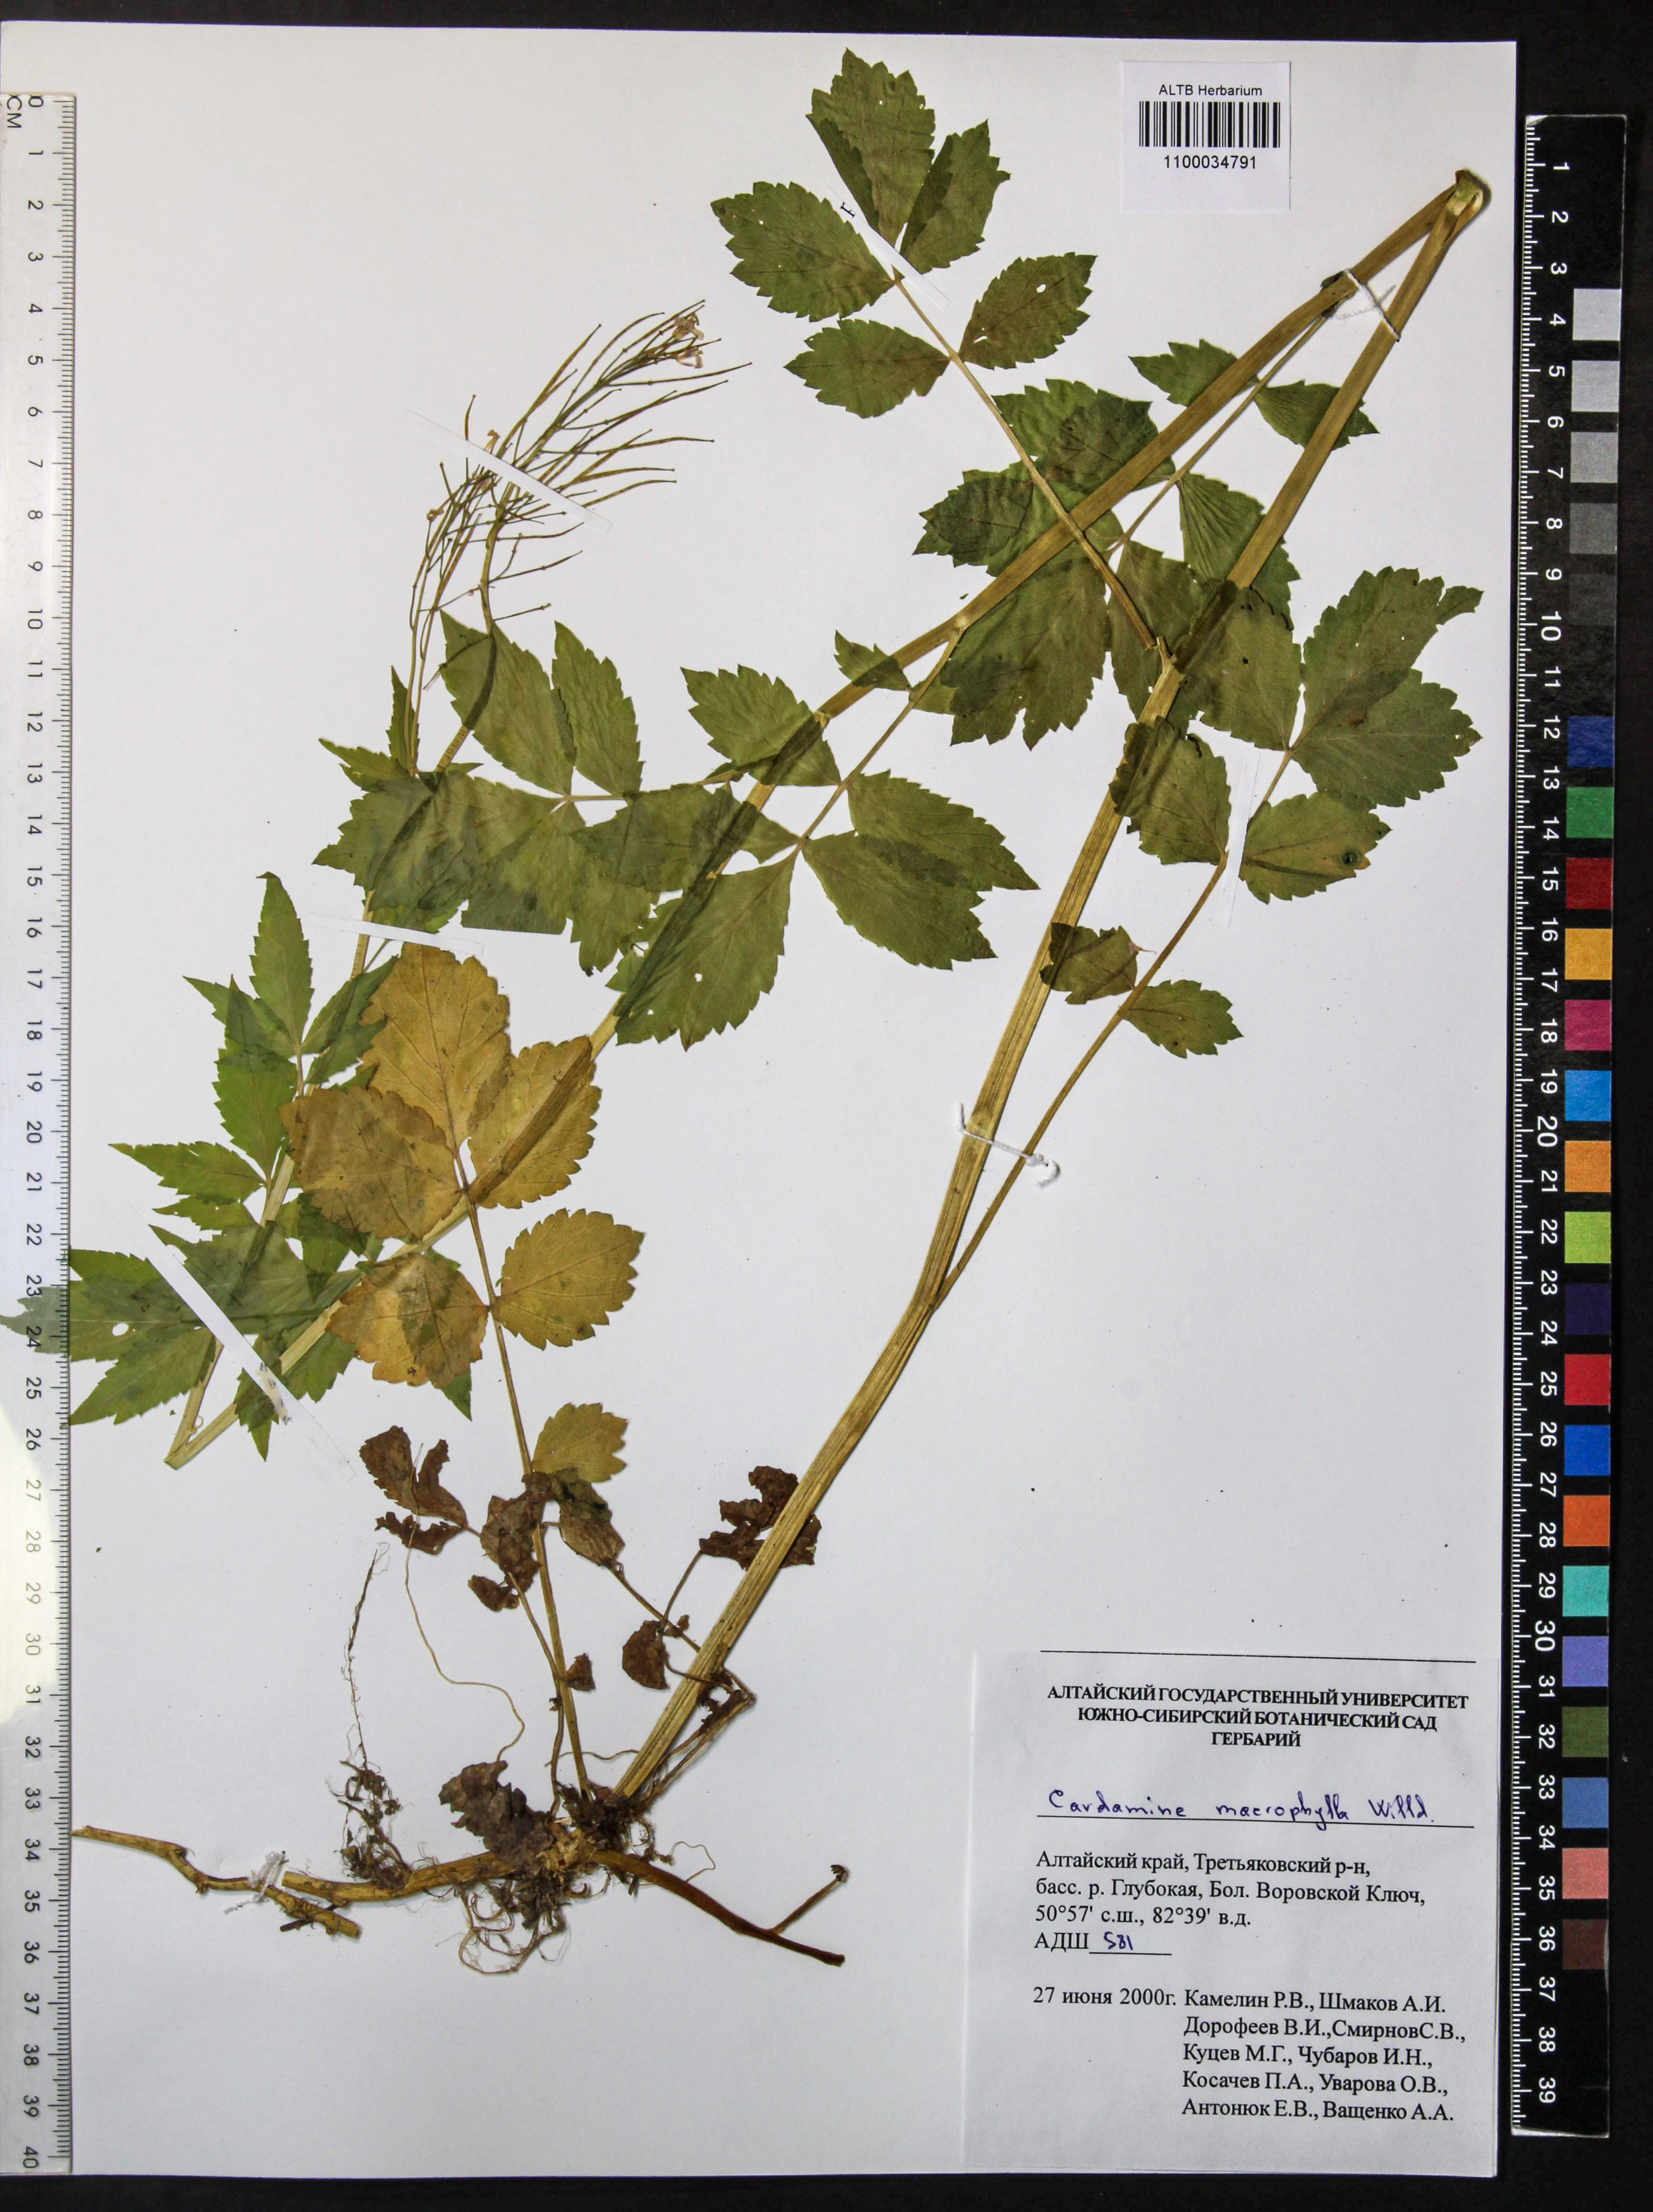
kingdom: Plantae
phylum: Tracheophyta
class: Magnoliopsida
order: Brassicales
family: Brassicaceae
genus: Cardamine
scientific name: Cardamine macrophylla
